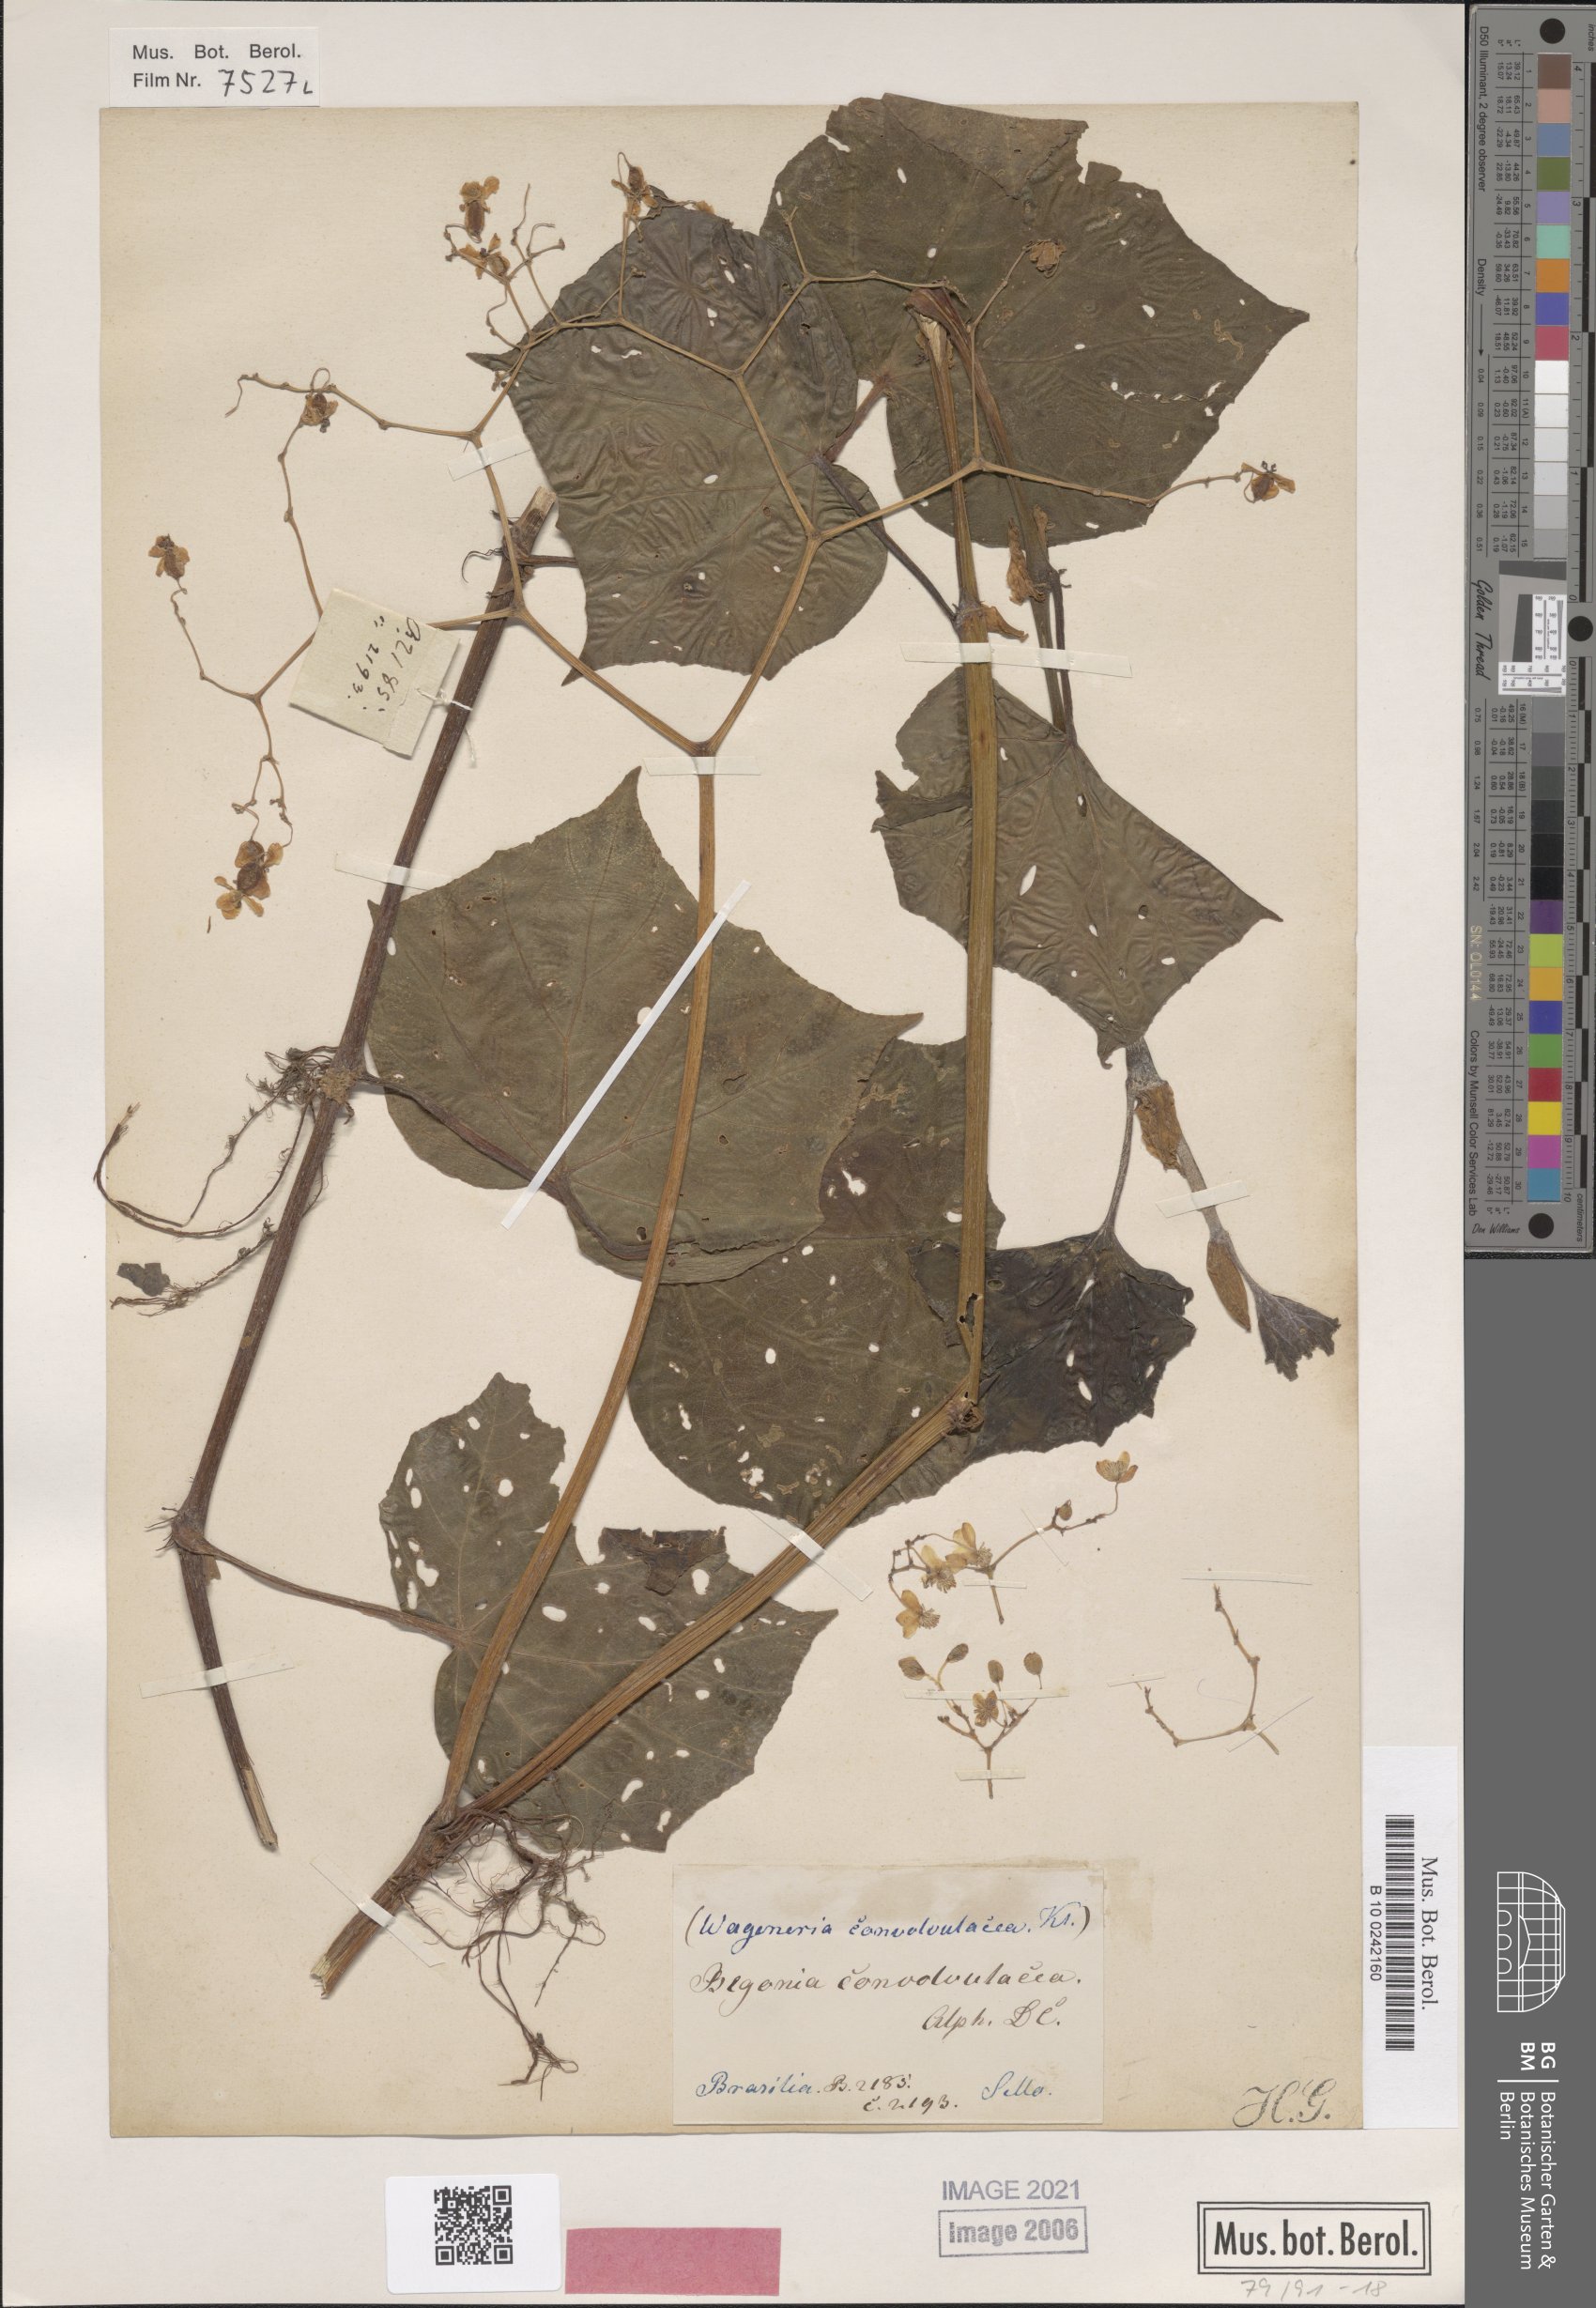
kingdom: Plantae
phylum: Tracheophyta
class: Magnoliopsida
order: Cucurbitales
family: Begoniaceae
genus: Begonia
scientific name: Begonia convolvulacea
